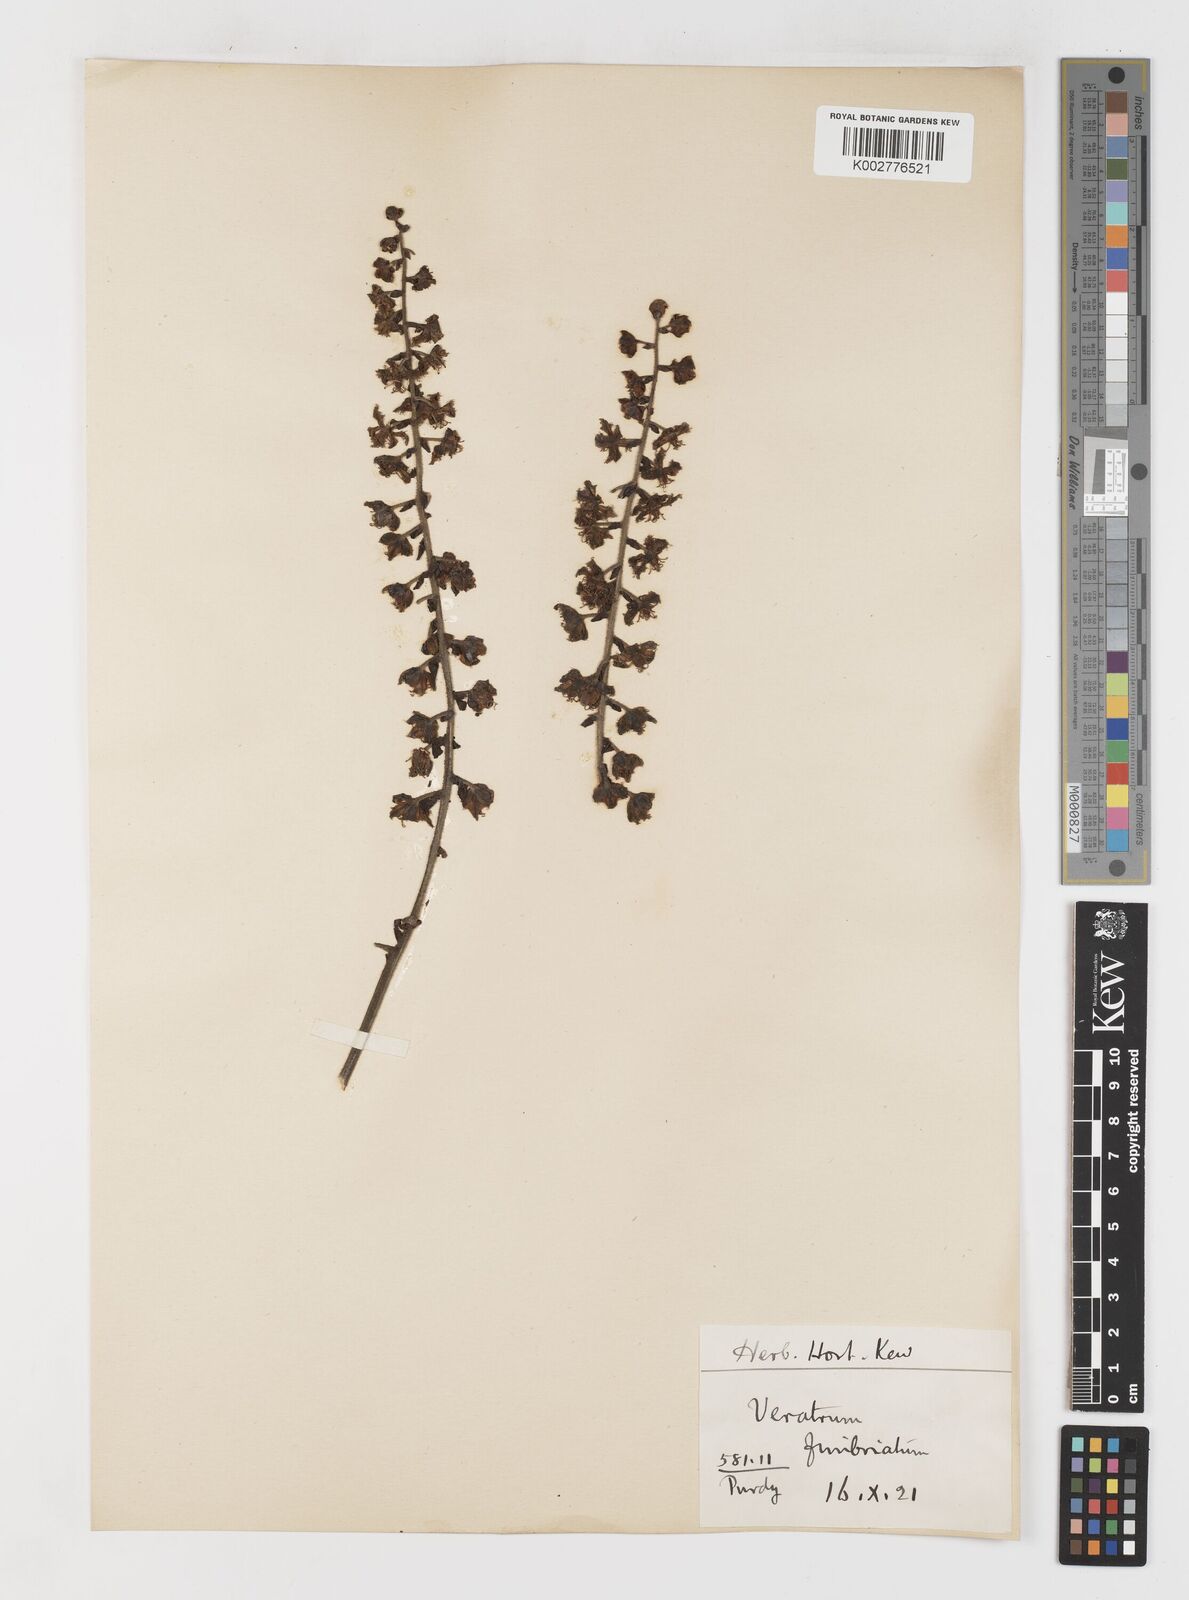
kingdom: Plantae
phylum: Tracheophyta
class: Liliopsida
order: Liliales
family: Melanthiaceae
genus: Veratrum
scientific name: Veratrum fimbriatum
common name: Fringe false hellobore
